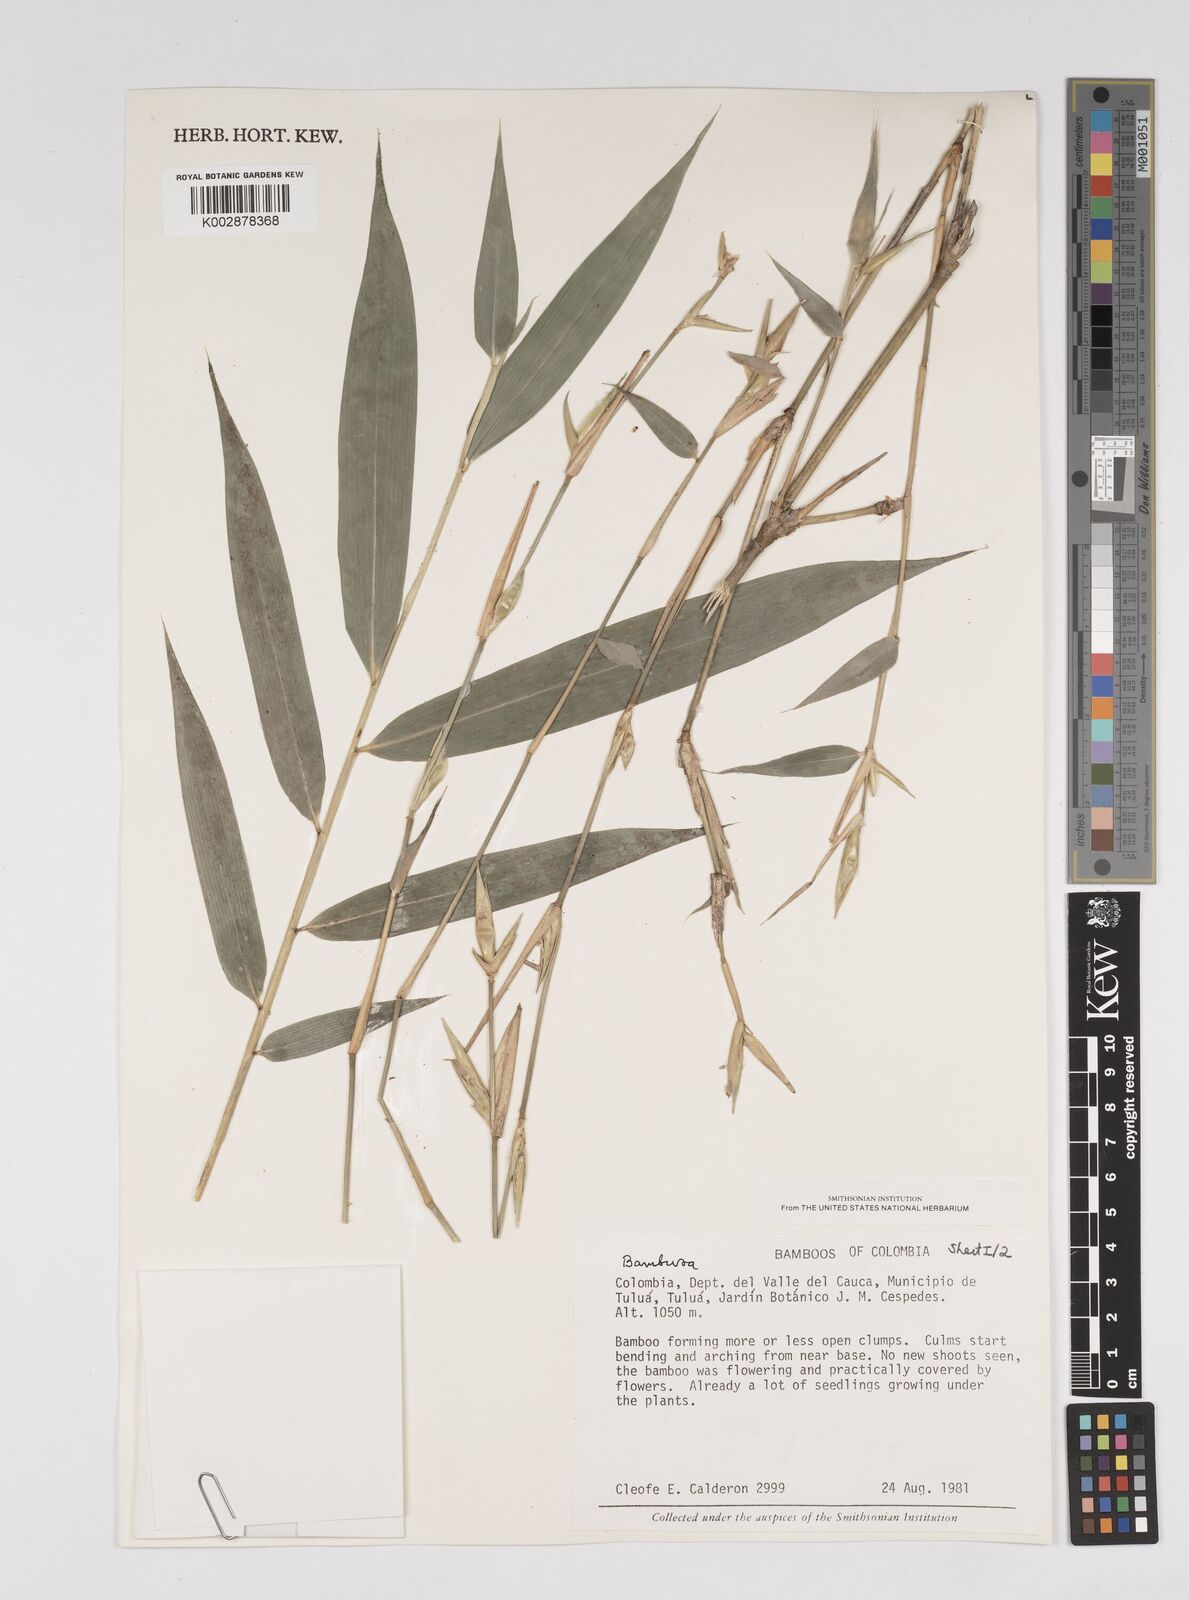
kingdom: Plantae
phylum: Tracheophyta
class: Liliopsida
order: Poales
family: Poaceae
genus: Bambusa
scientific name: Bambusa
